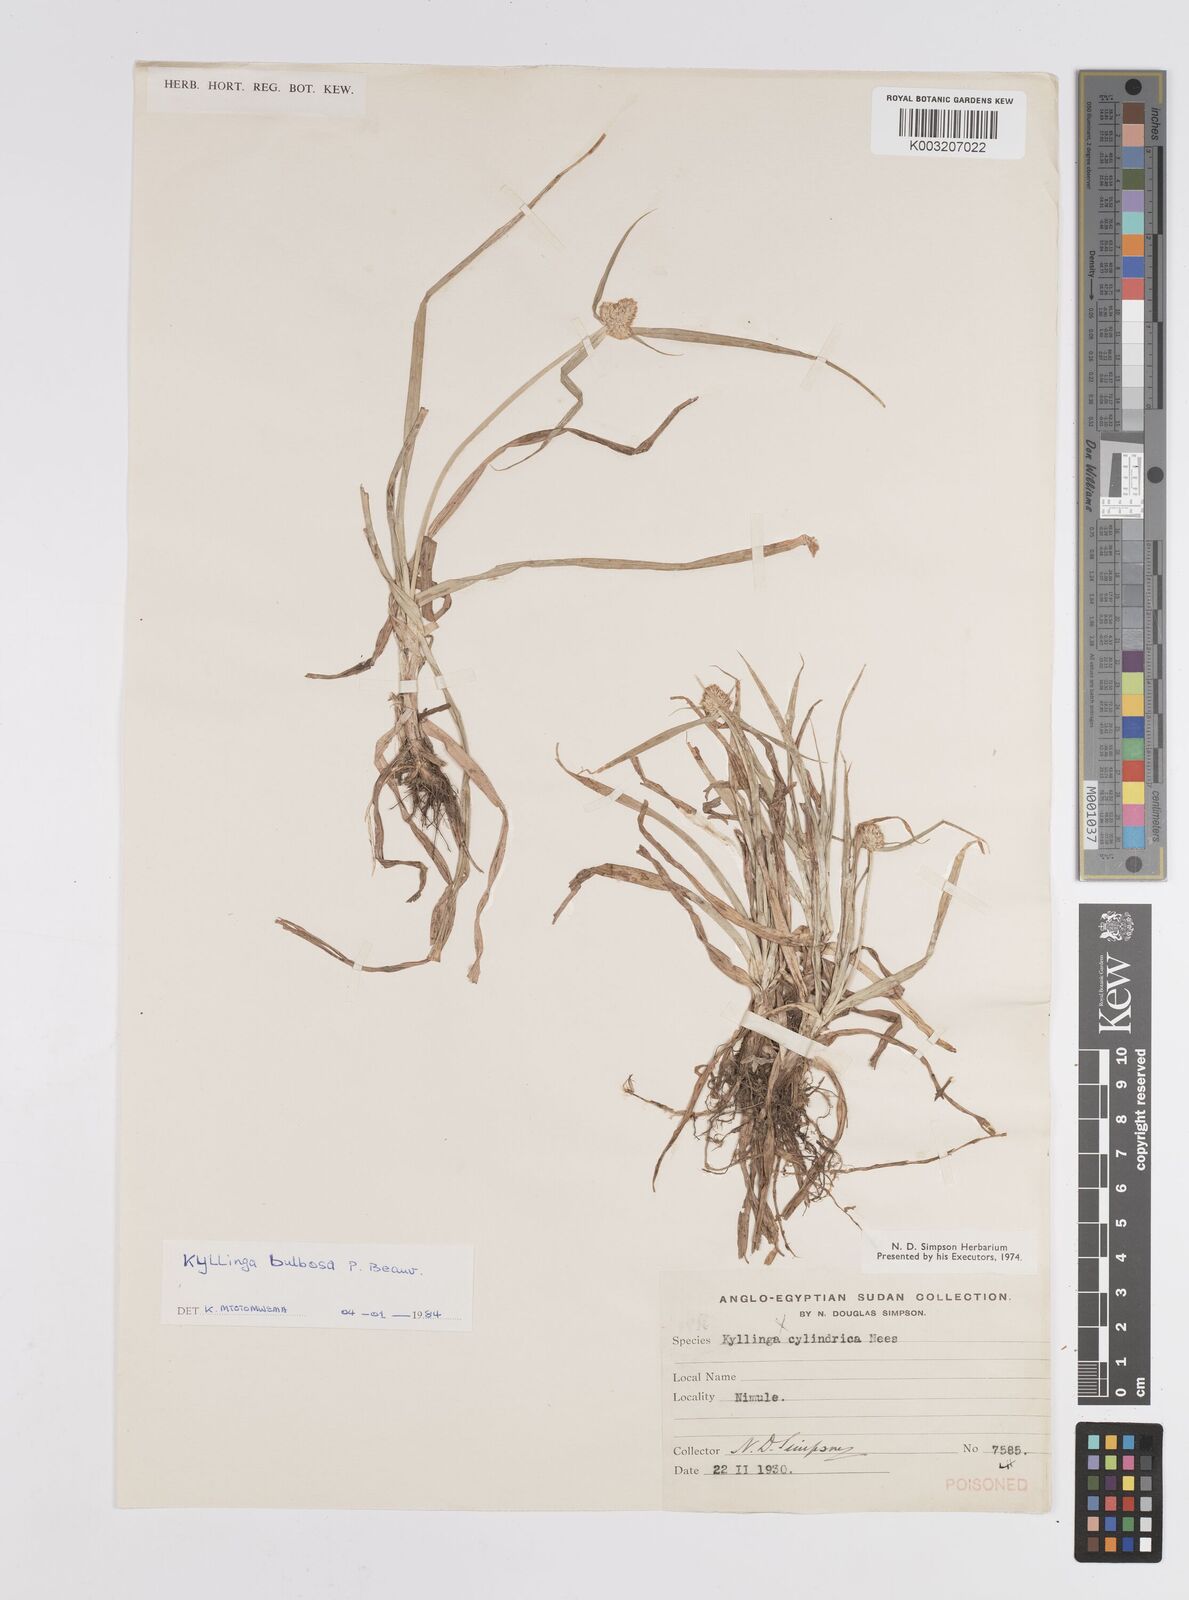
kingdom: Plantae
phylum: Tracheophyta
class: Liliopsida
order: Poales
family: Cyperaceae
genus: Cyperus
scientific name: Cyperus
